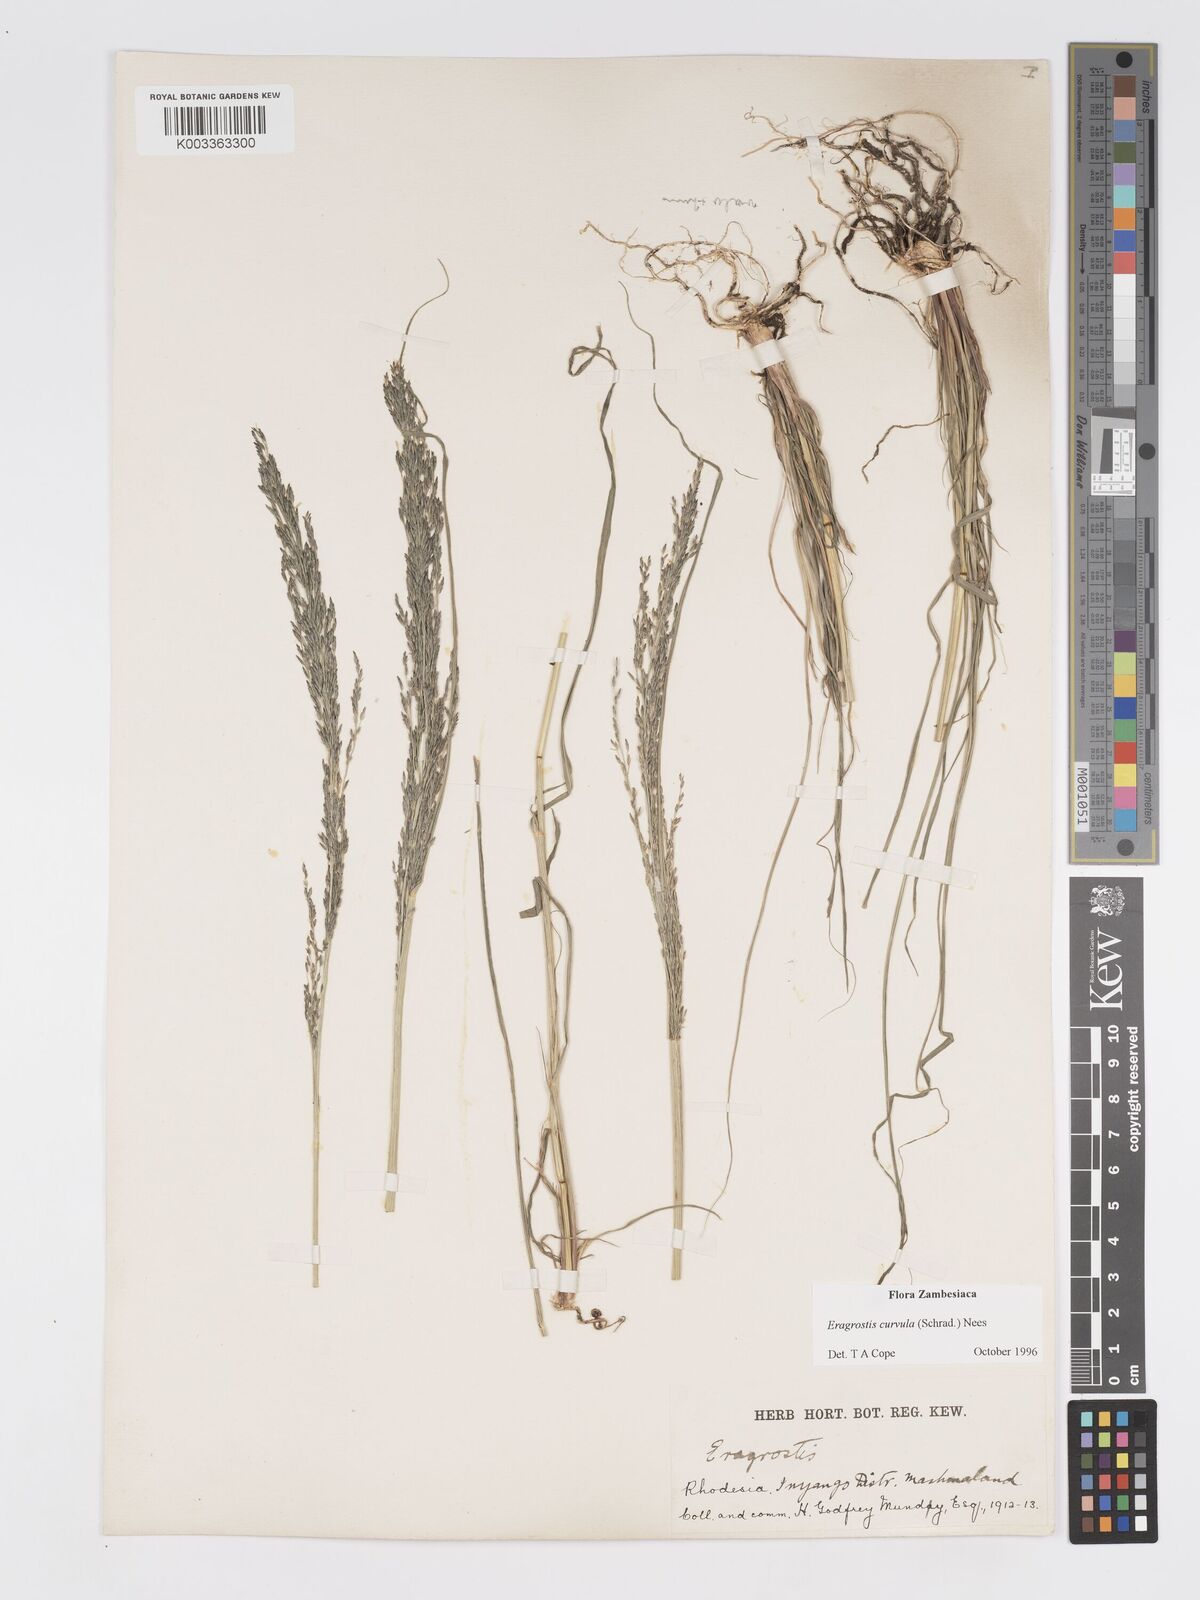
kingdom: Plantae
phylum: Tracheophyta
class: Liliopsida
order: Poales
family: Poaceae
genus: Eragrostis
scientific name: Eragrostis curvula
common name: African love-grass
